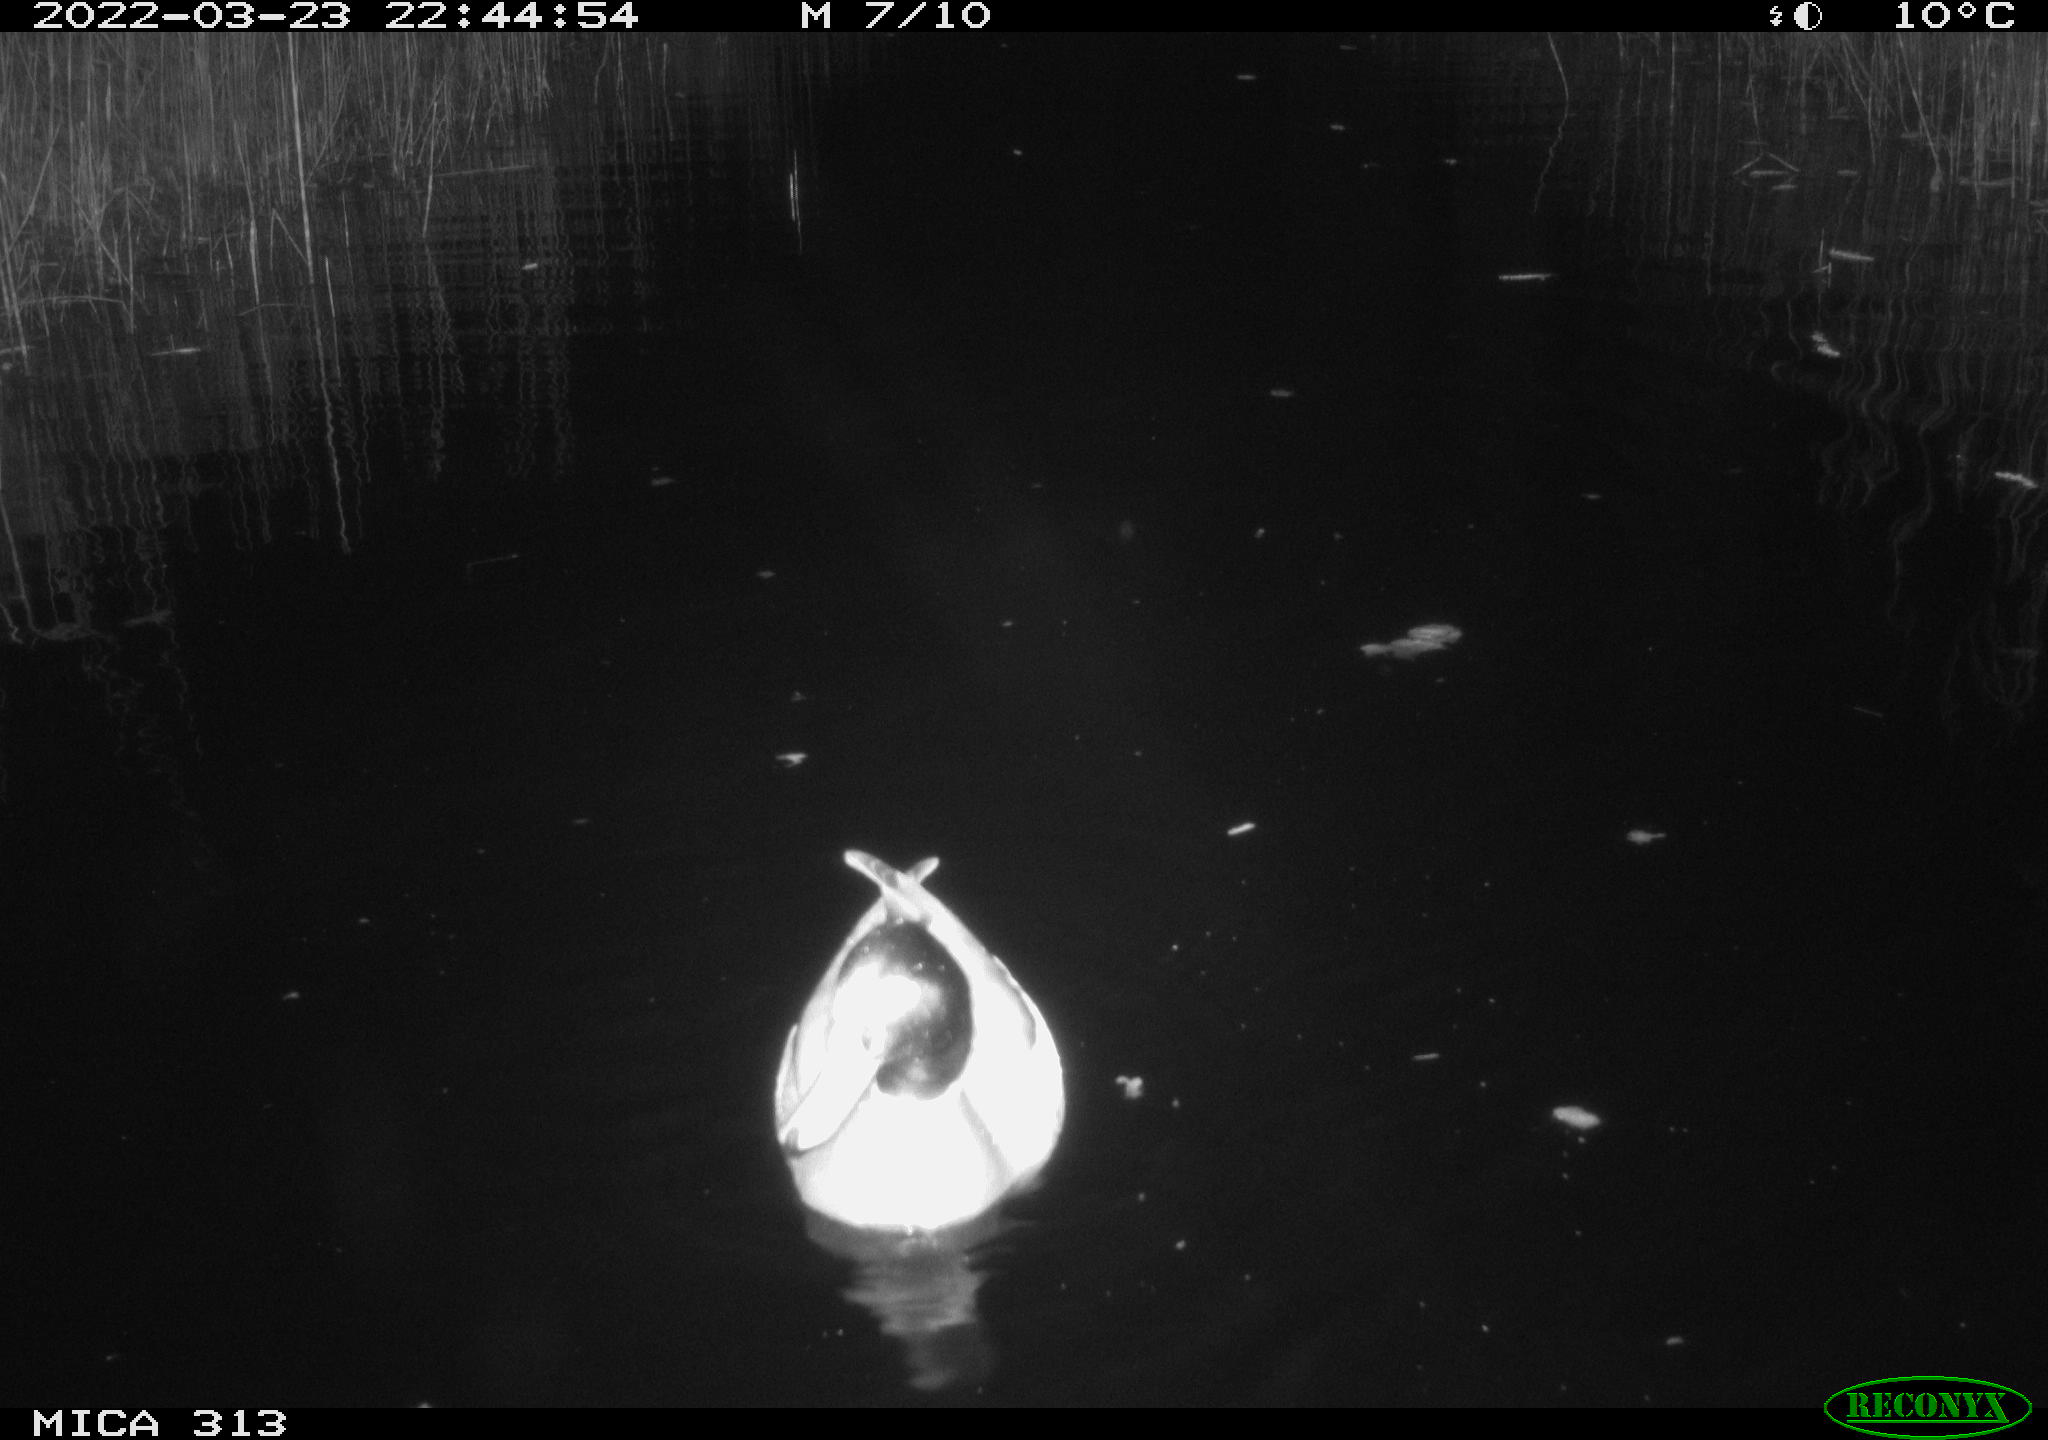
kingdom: Animalia
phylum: Chordata
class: Aves
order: Anseriformes
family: Anatidae
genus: Anas
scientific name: Anas platyrhynchos
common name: Mallard
